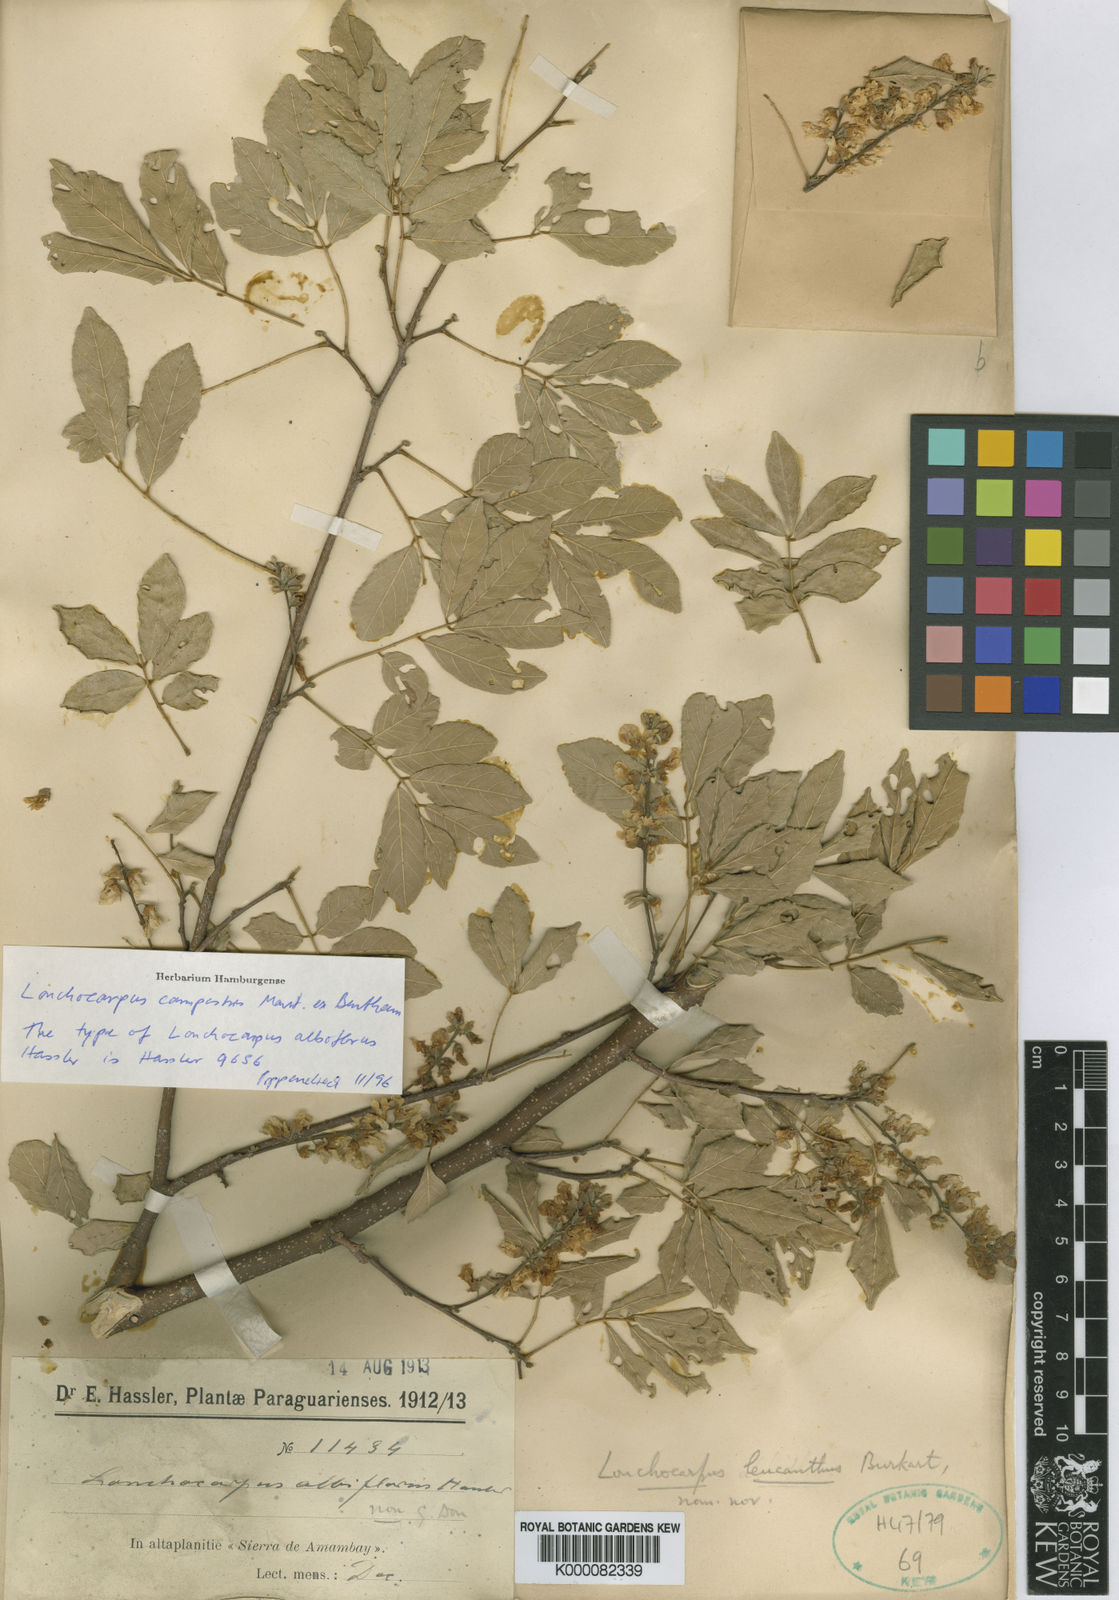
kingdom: Plantae
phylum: Tracheophyta
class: Magnoliopsida
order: Fabales
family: Fabaceae
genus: Muellera
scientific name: Muellera campestris
